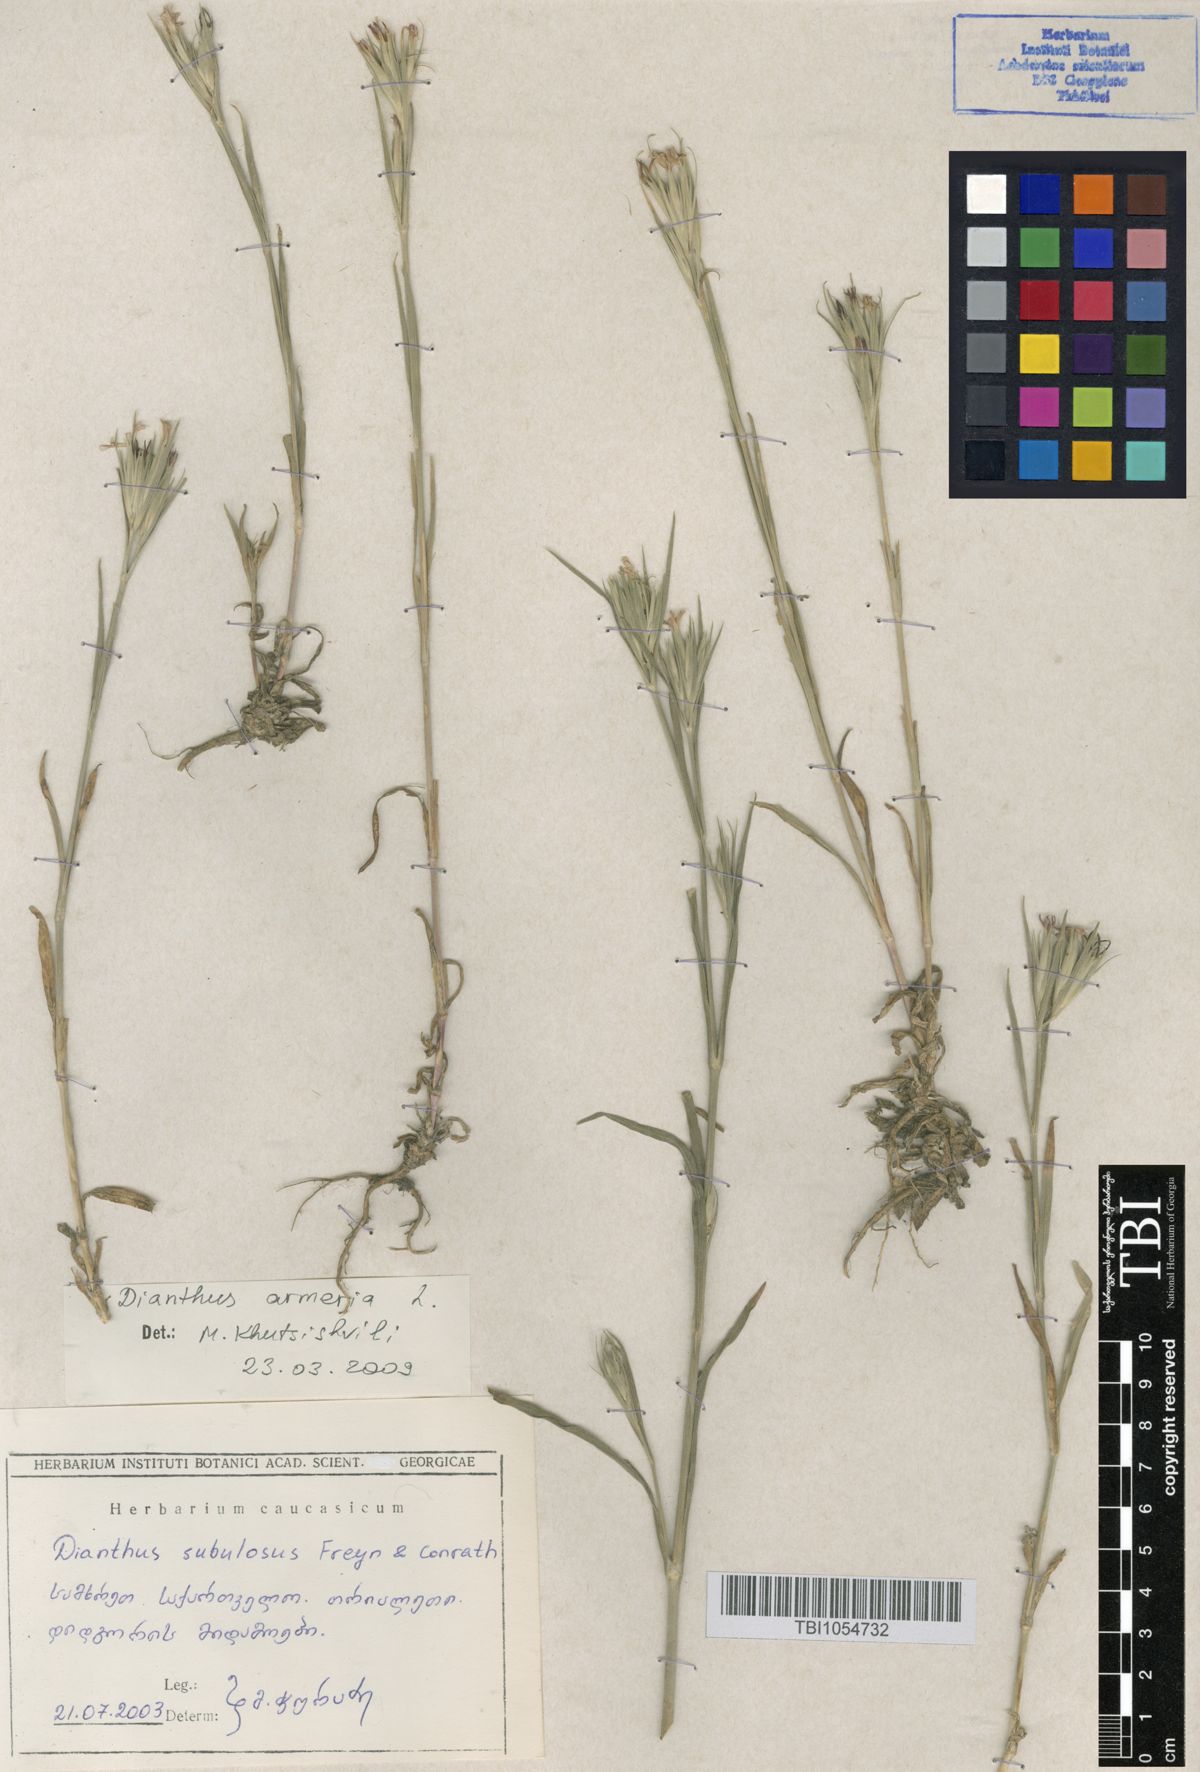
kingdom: Plantae
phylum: Tracheophyta
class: Magnoliopsida
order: Caryophyllales
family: Caryophyllaceae
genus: Dianthus
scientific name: Dianthus armeria
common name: Deptford pink
